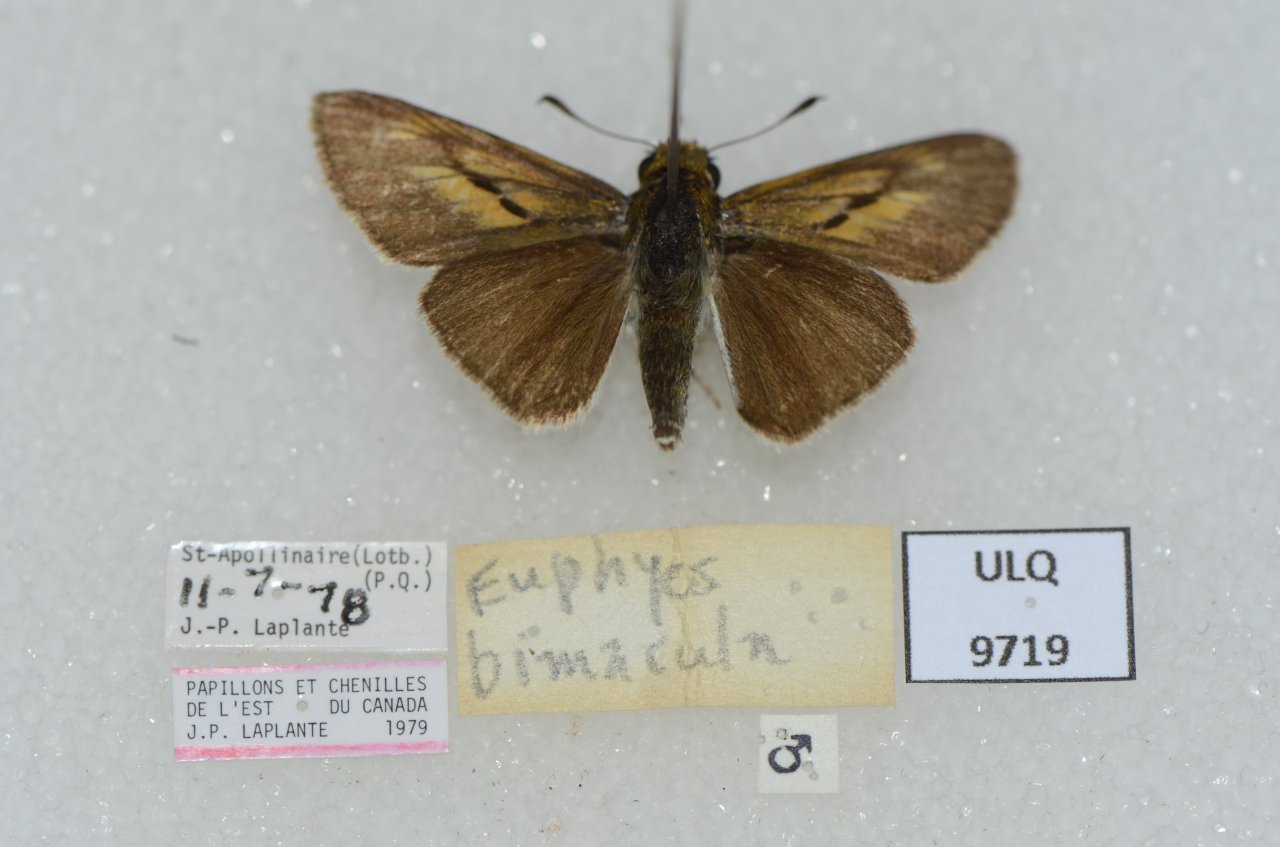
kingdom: Animalia
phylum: Arthropoda
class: Insecta
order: Lepidoptera
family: Hesperiidae
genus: Euphyes
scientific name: Euphyes bimacula
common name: Two-spotted Skipper
